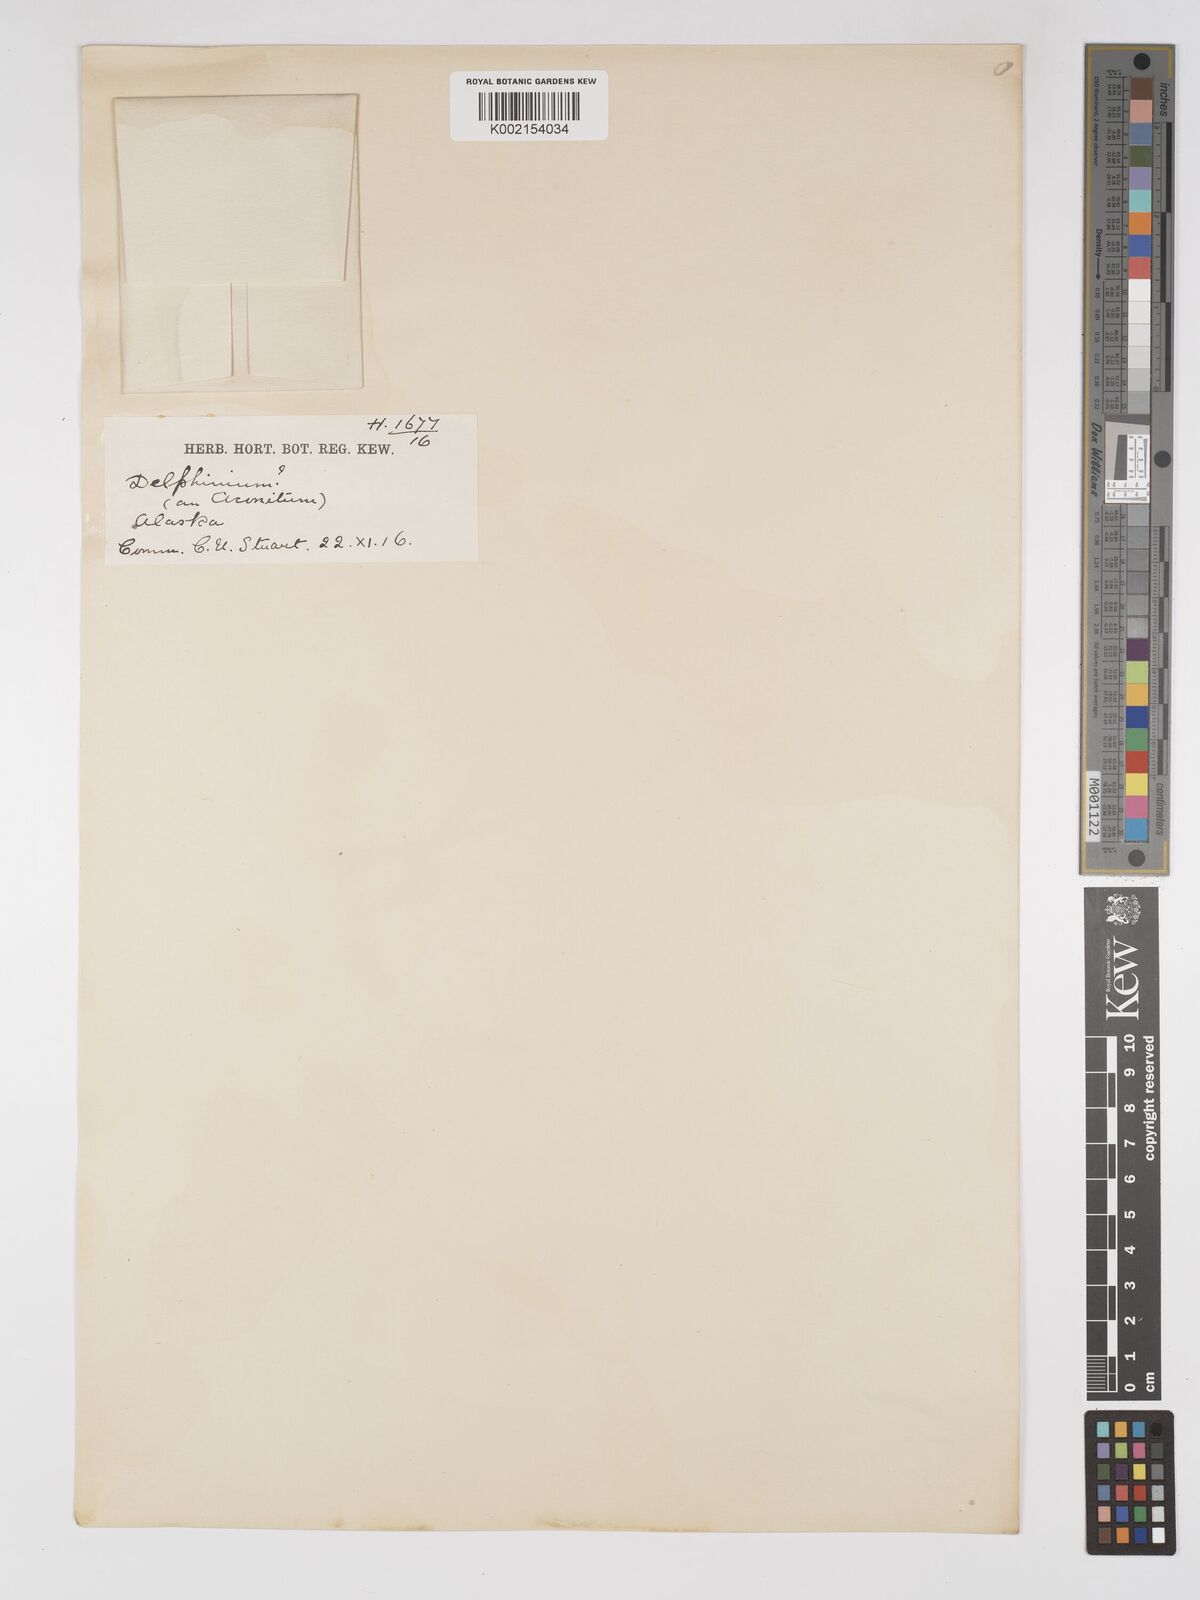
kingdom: Plantae
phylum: Tracheophyta
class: Magnoliopsida
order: Ranunculales
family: Ranunculaceae
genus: Delphinium
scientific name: Delphinium
